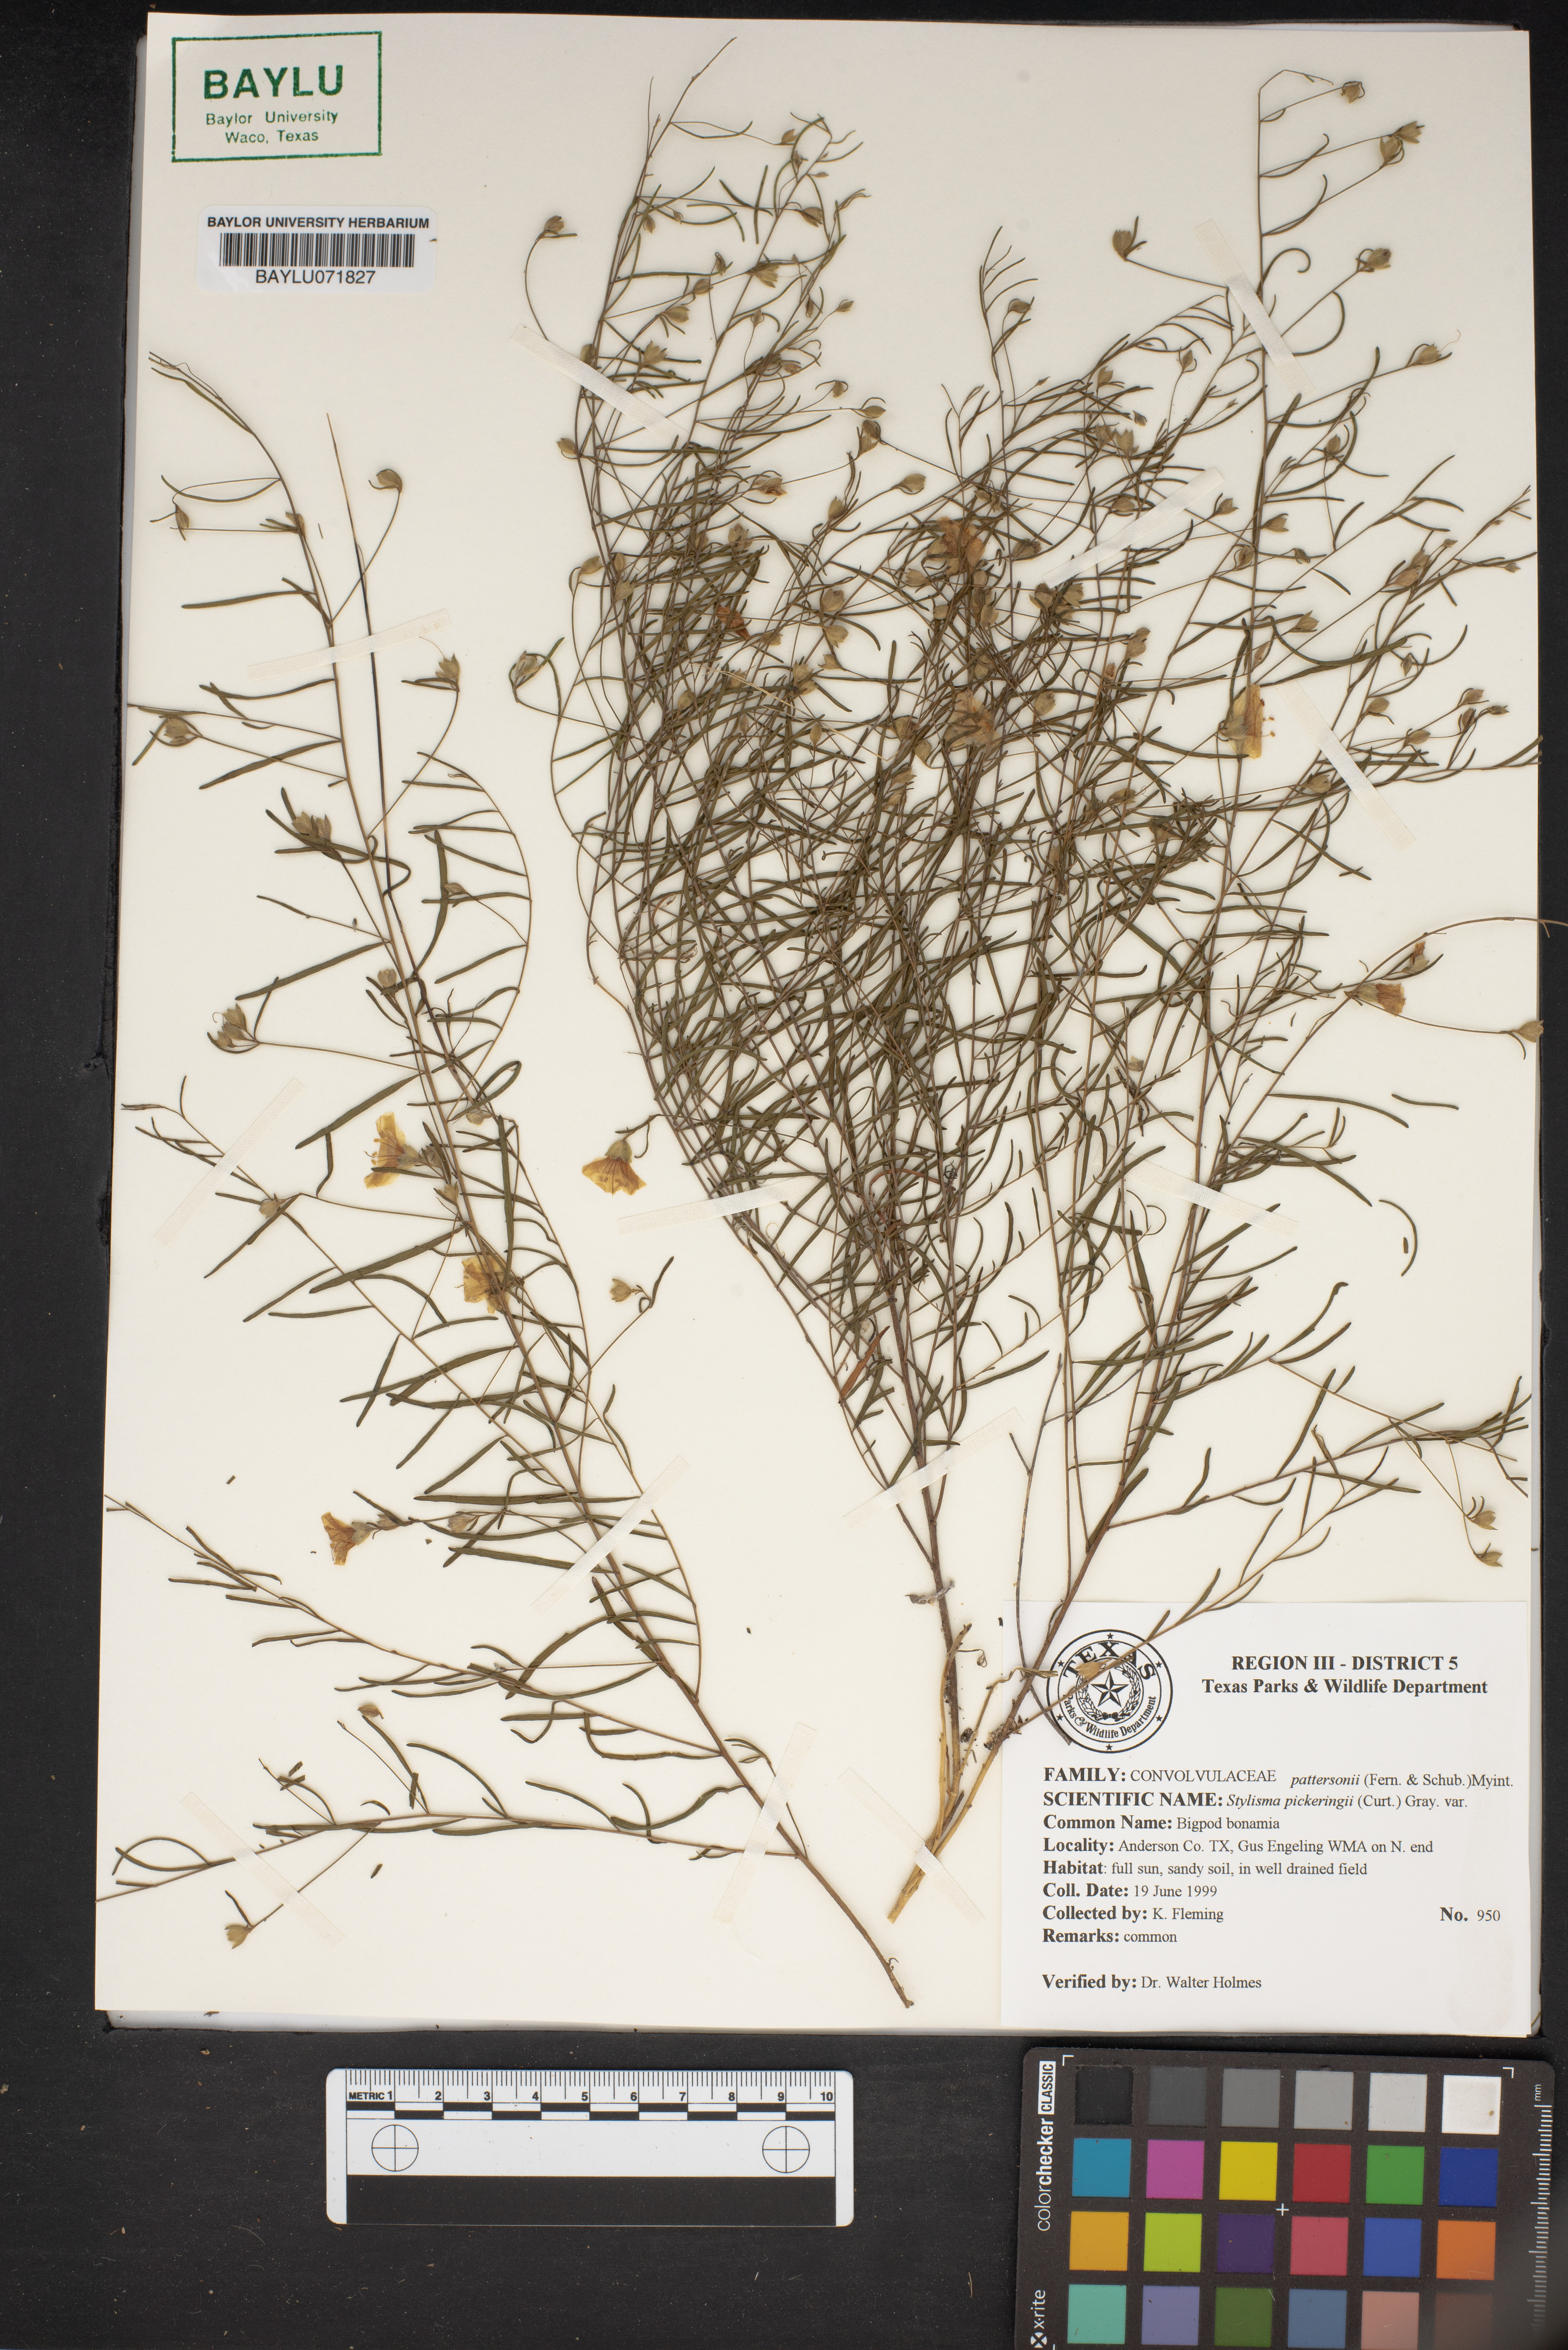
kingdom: Plantae
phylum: Tracheophyta
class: Magnoliopsida
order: Solanales
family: Convolvulaceae
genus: Stylisma
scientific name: Stylisma pickeringii
